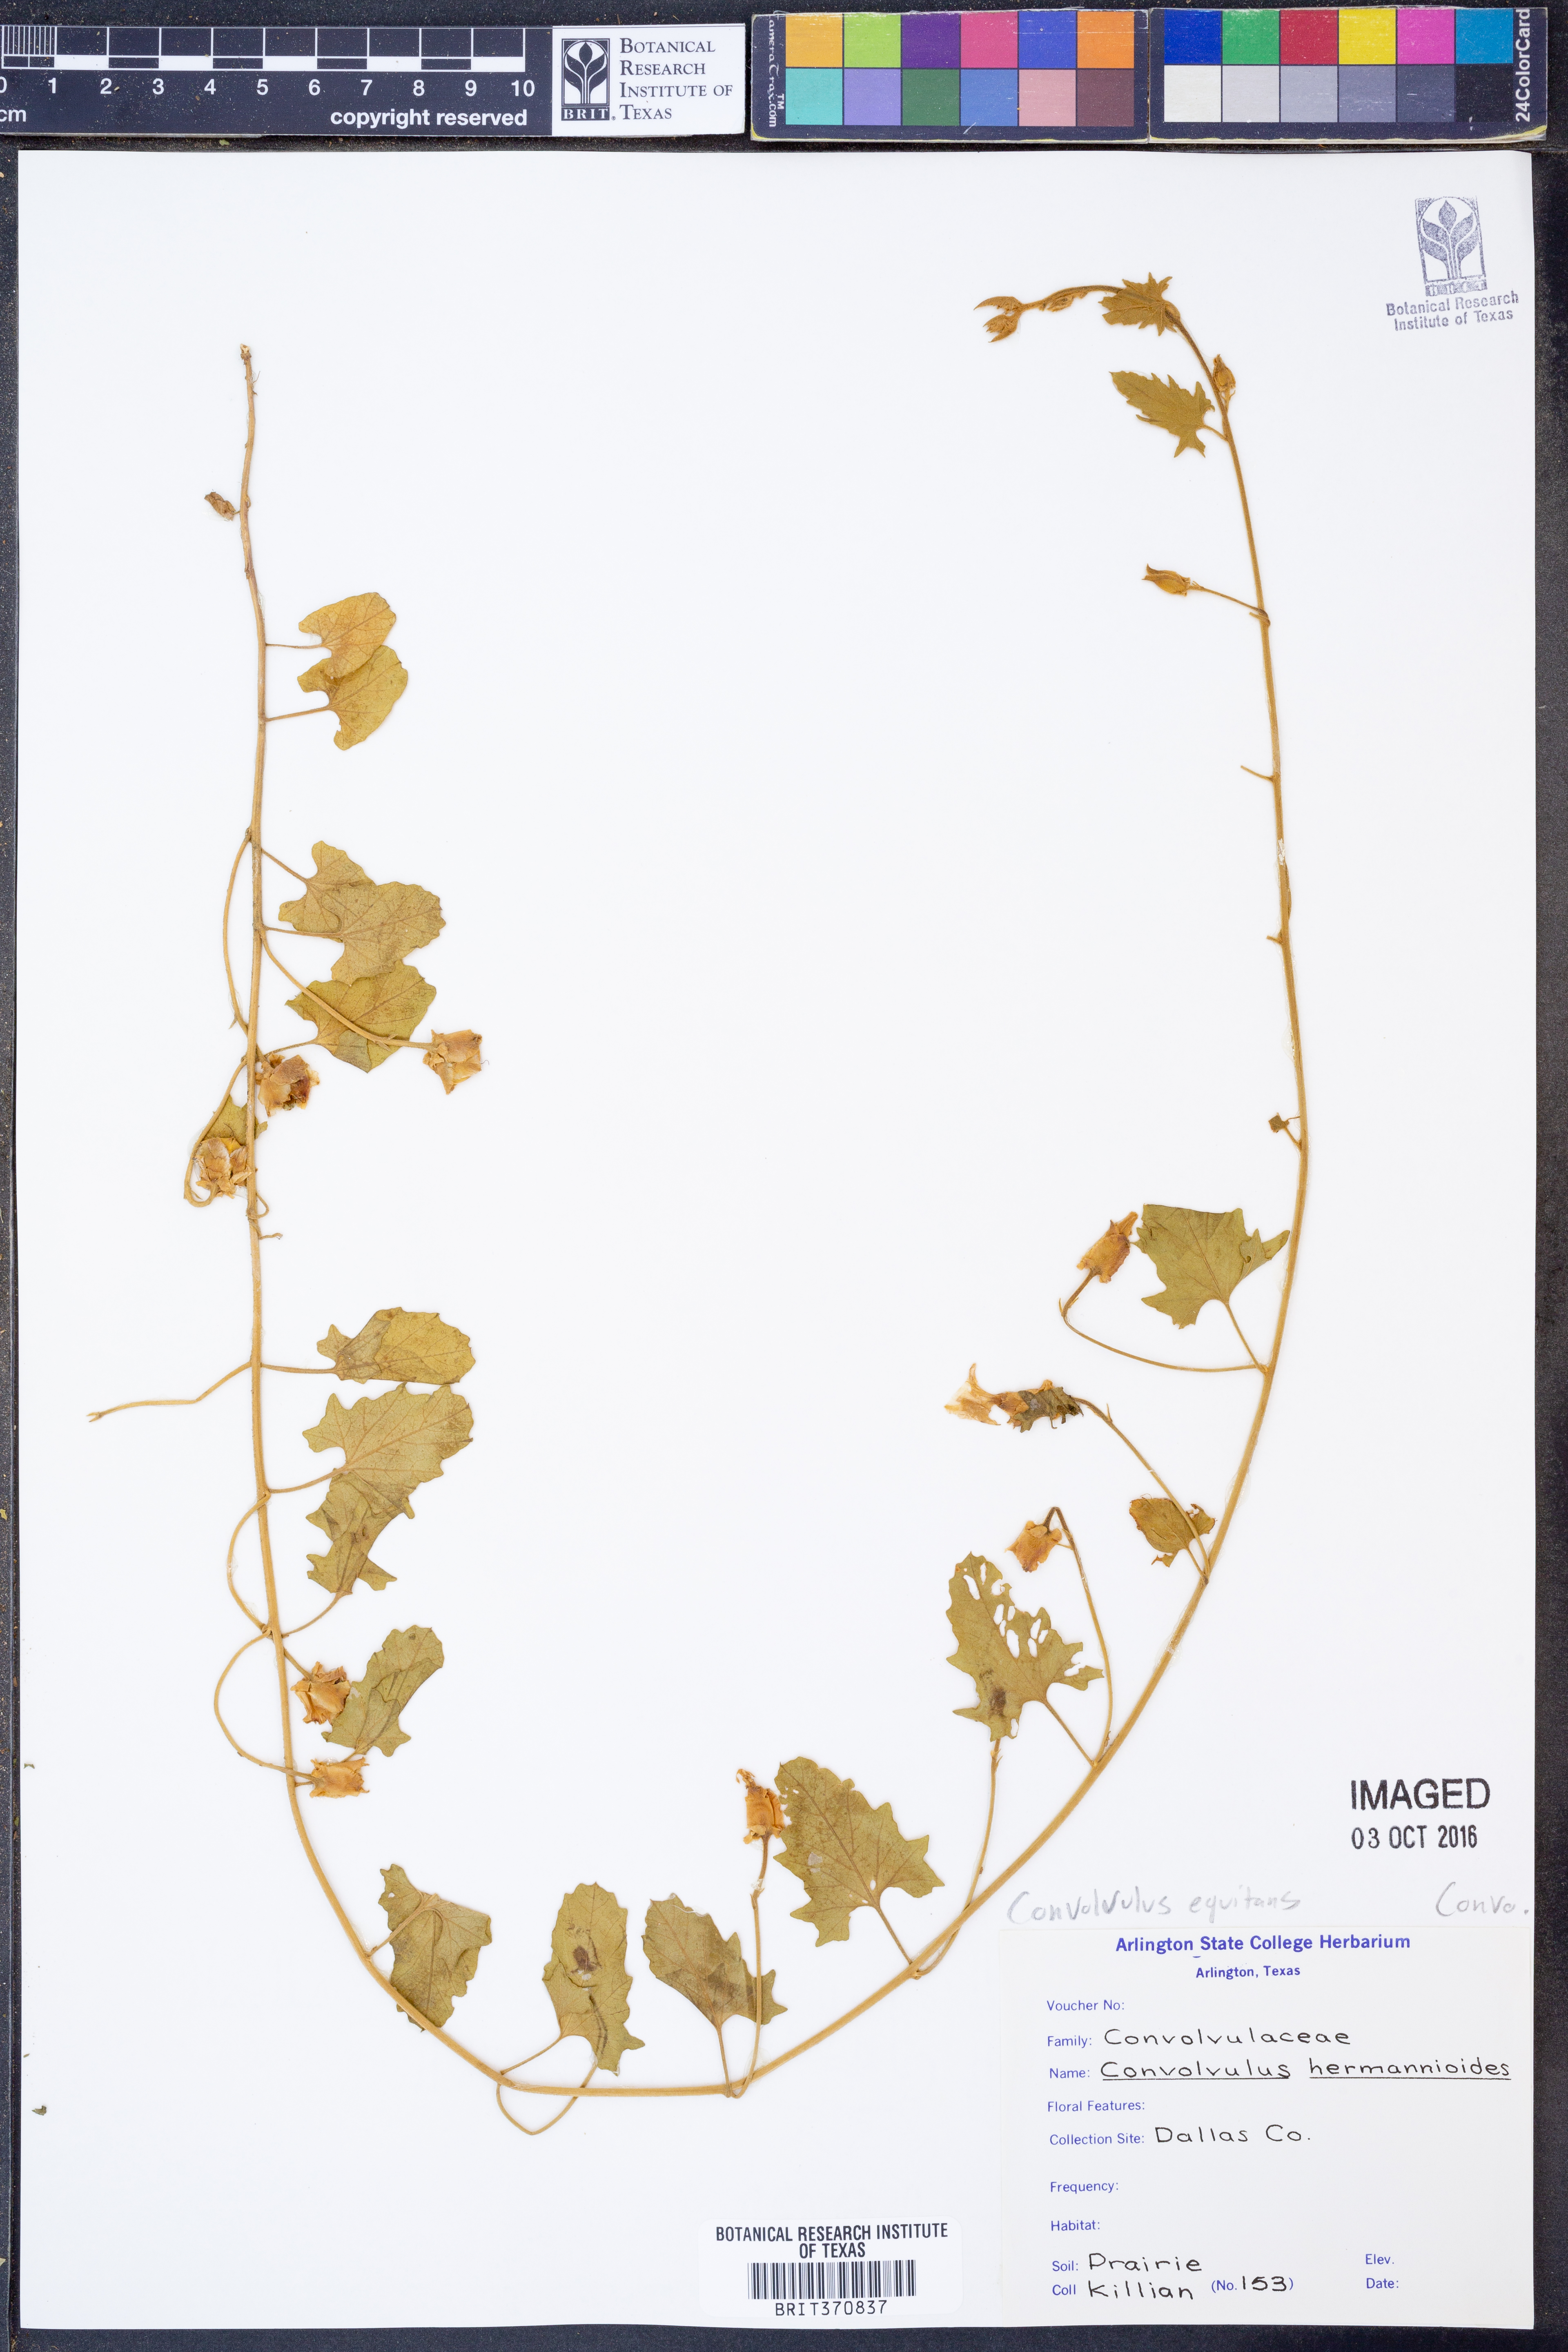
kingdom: Plantae
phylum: Tracheophyta
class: Magnoliopsida
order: Solanales
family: Convolvulaceae
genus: Convolvulus
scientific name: Convolvulus equitans
